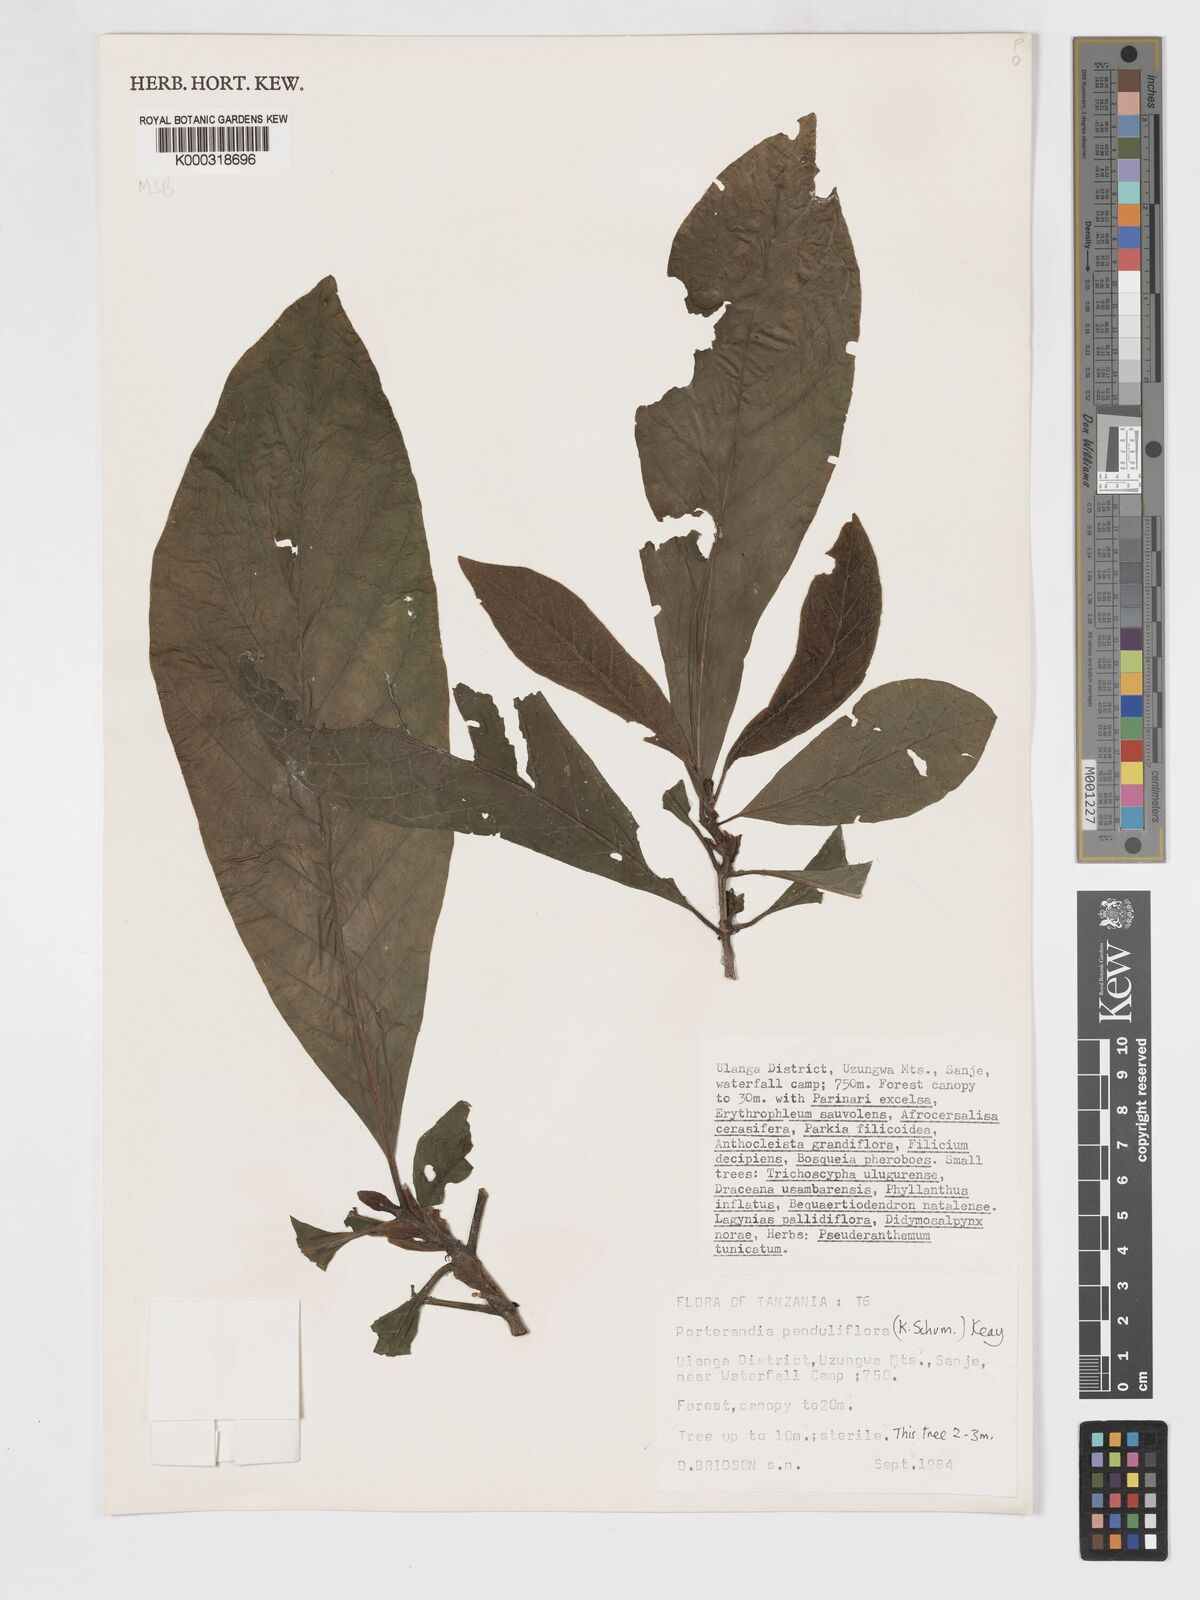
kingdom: Plantae
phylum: Tracheophyta
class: Magnoliopsida
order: Gentianales
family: Rubiaceae
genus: Aoranthe
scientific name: Aoranthe penduliflora
